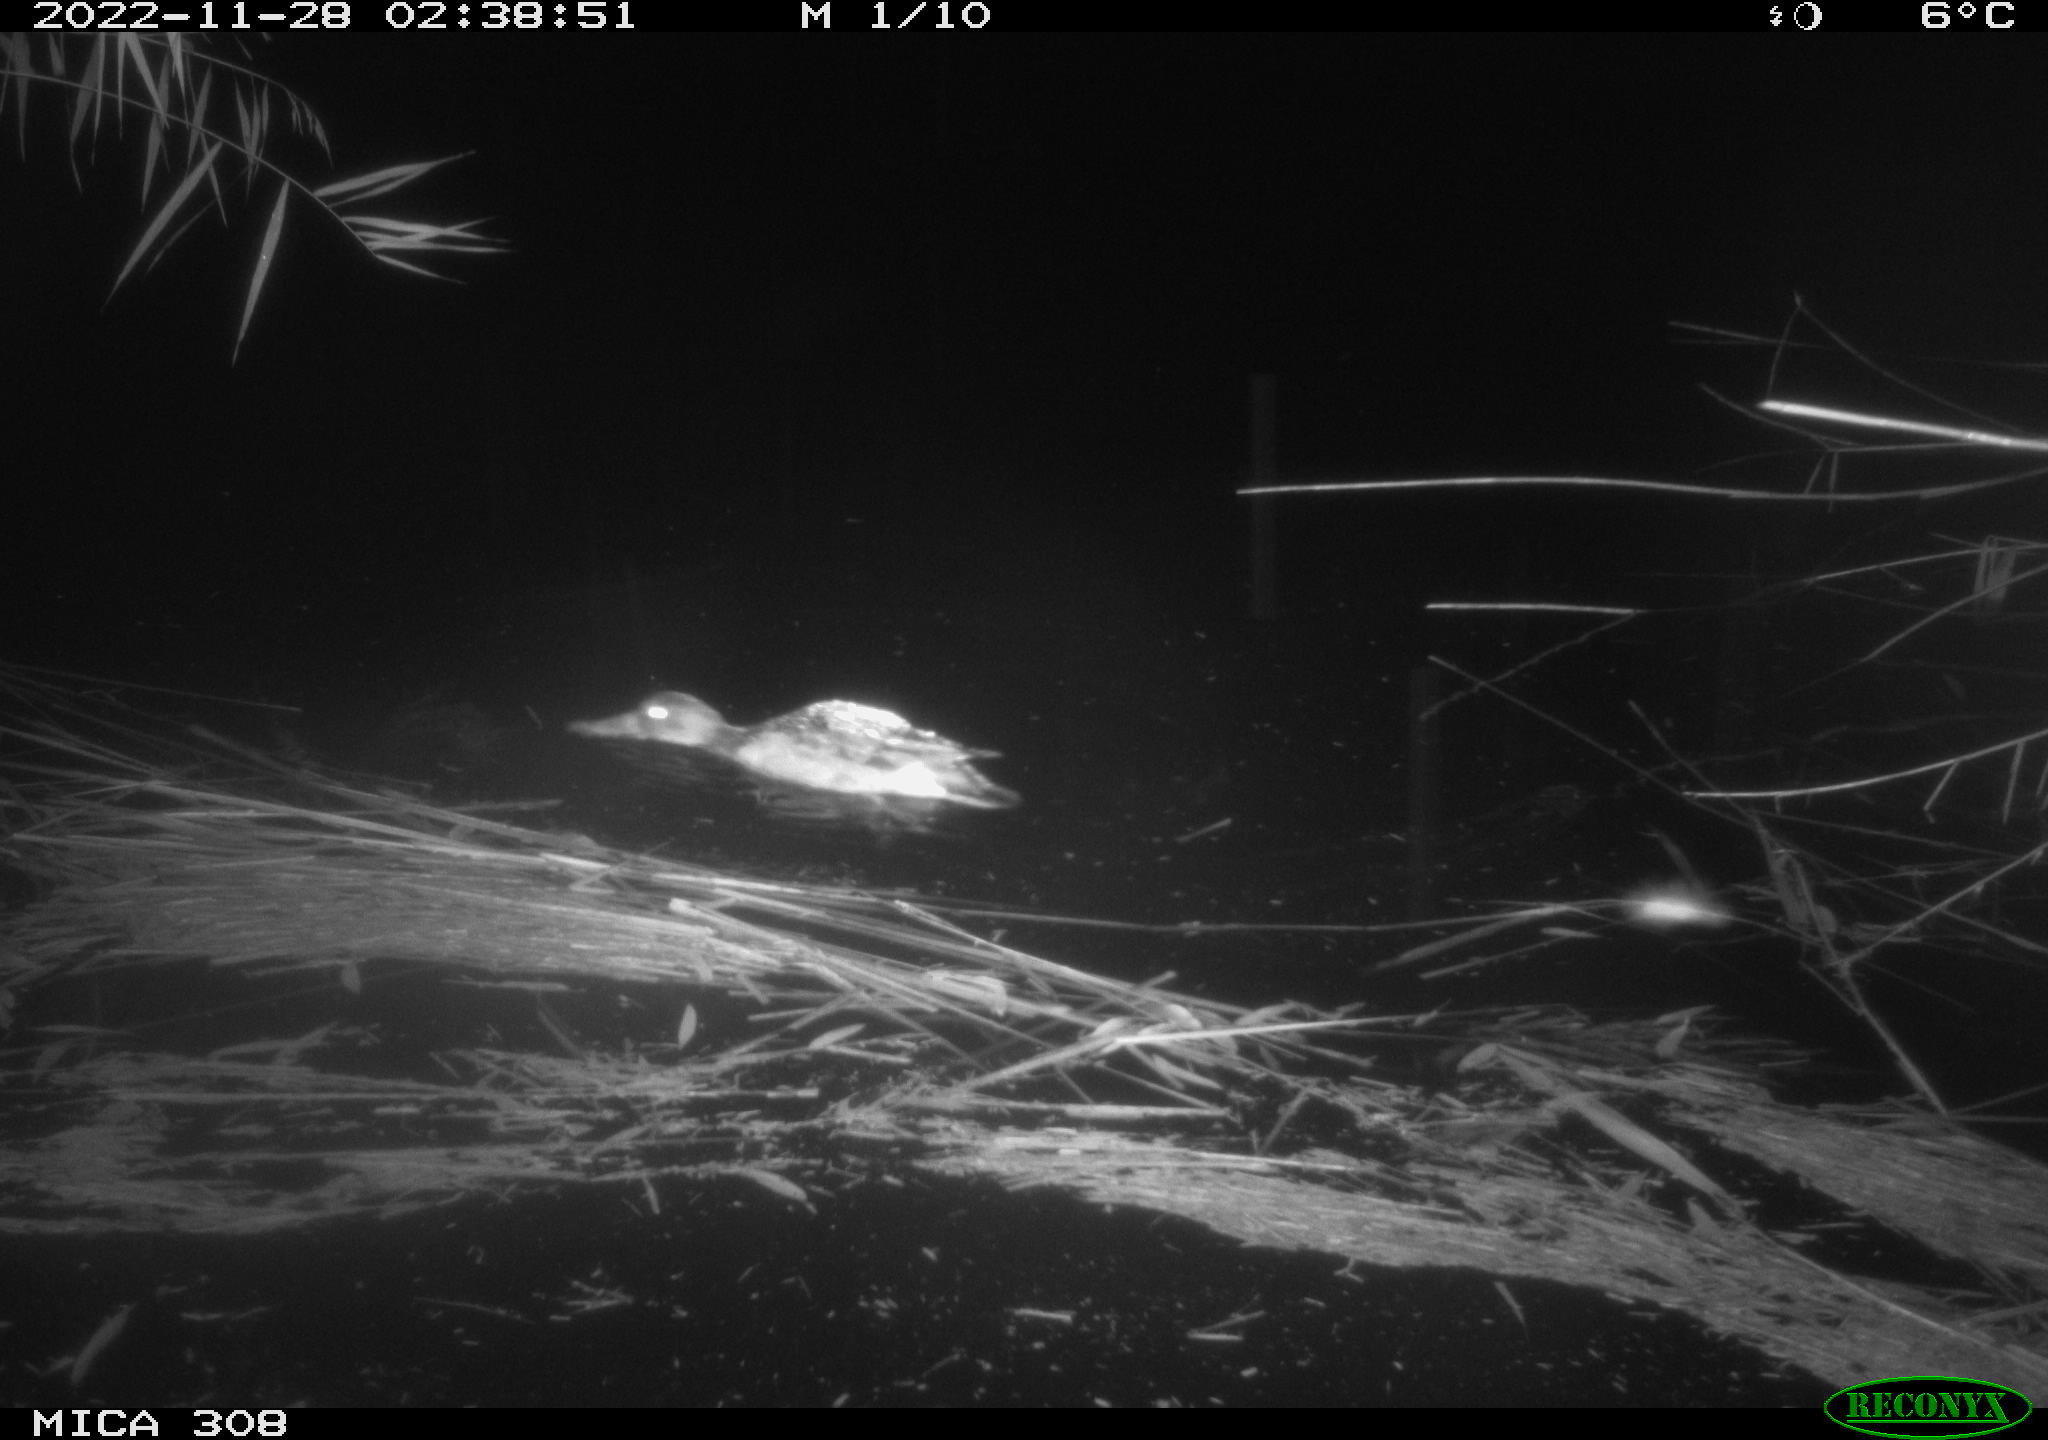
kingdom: Animalia
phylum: Chordata
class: Aves
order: Anseriformes
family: Anatidae
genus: Anas
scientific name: Anas
